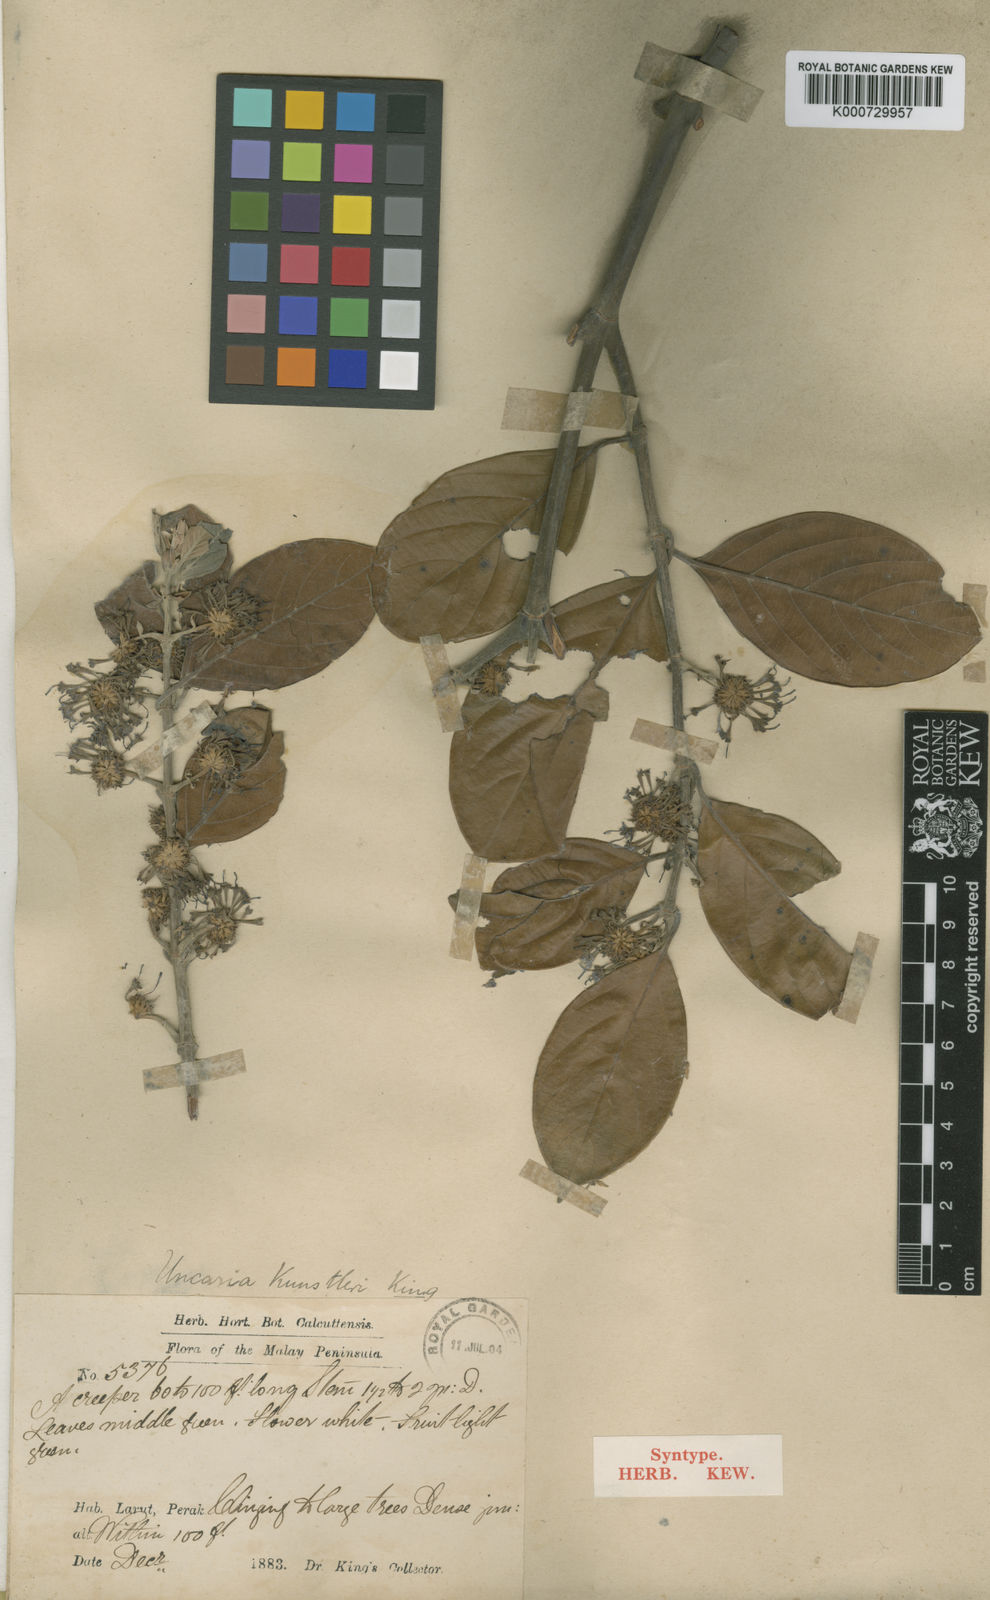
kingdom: Plantae
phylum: Tracheophyta
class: Magnoliopsida
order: Gentianales
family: Rubiaceae
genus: Uncaria
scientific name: Uncaria kunstleri
